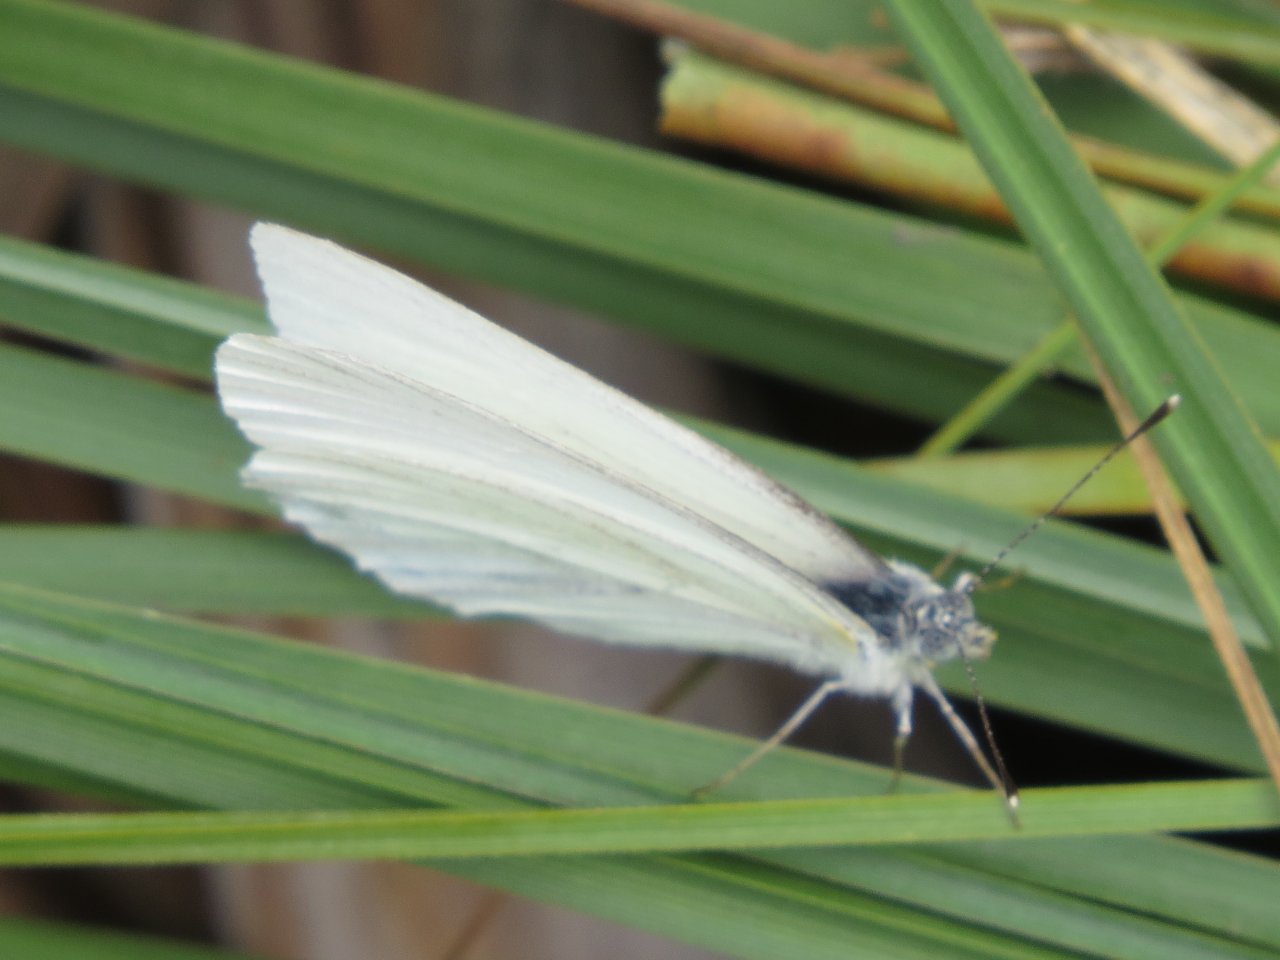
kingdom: Animalia
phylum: Arthropoda
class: Insecta
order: Lepidoptera
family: Pieridae
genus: Pieris
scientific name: Pieris oleracea
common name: Mustard White
